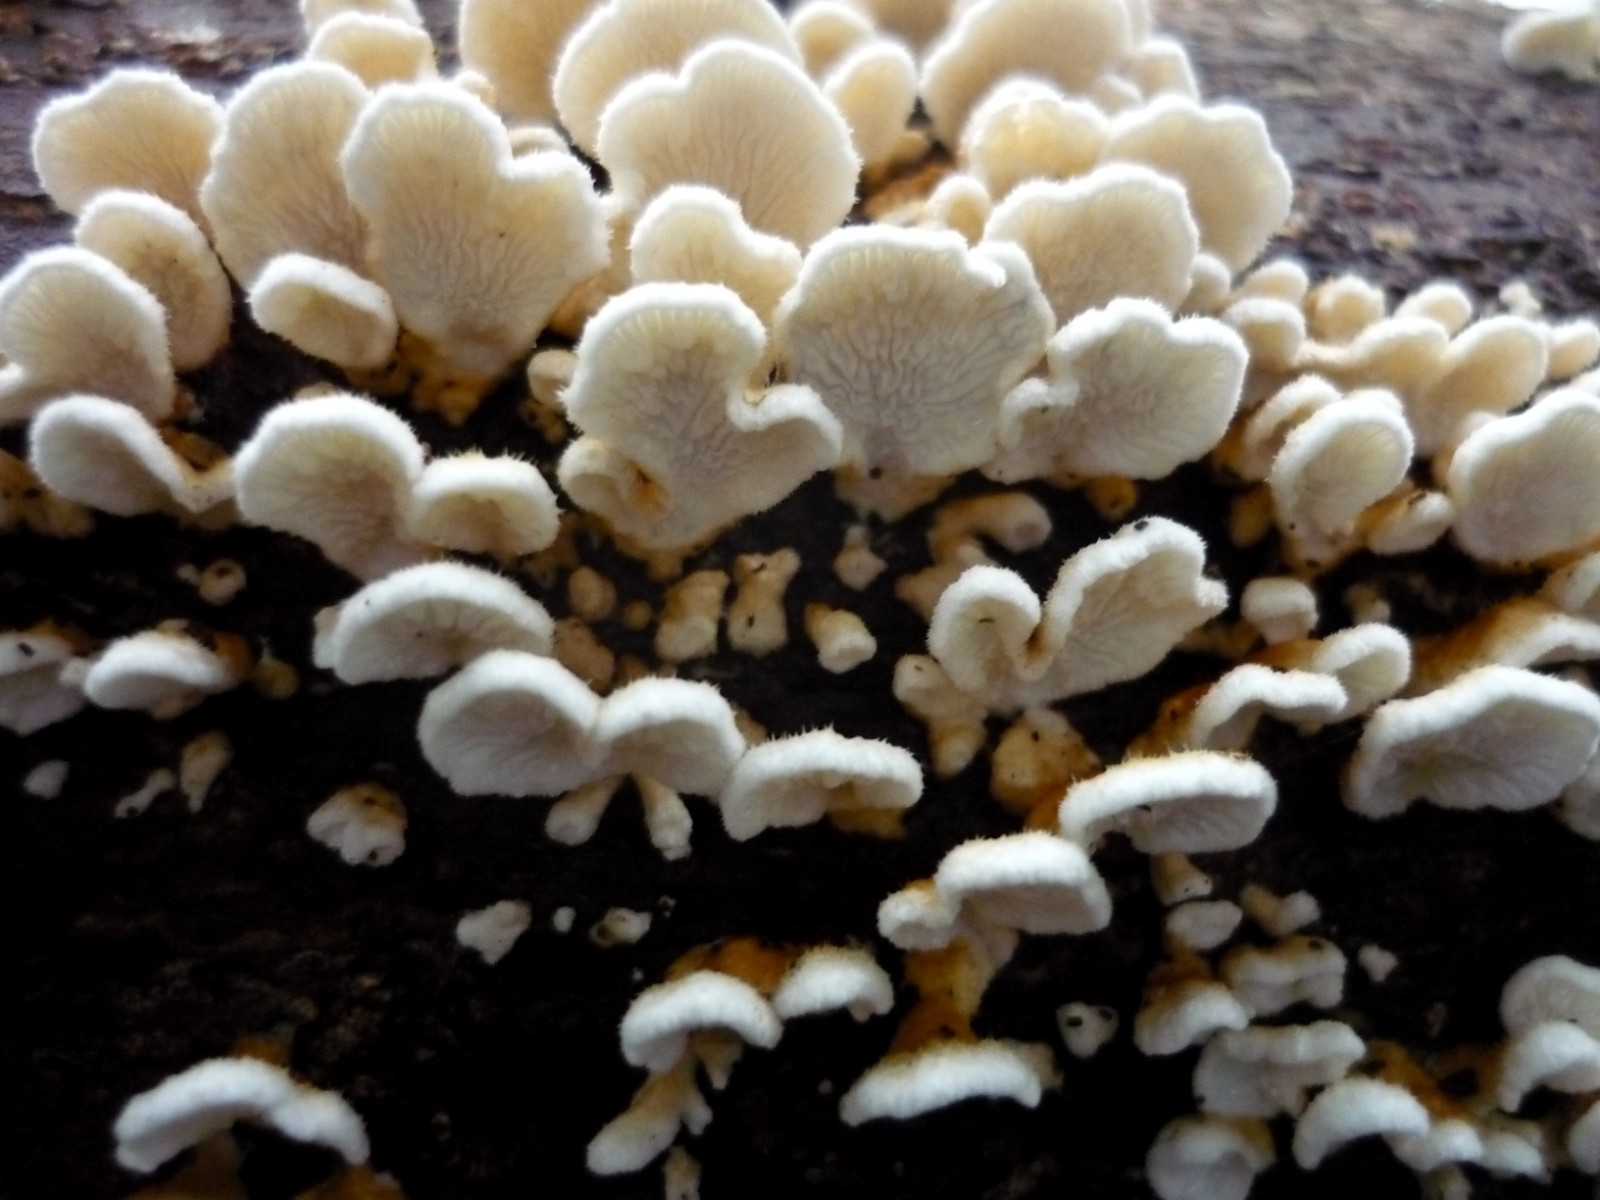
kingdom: Fungi
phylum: Basidiomycota
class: Agaricomycetes
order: Amylocorticiales
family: Amylocorticiaceae
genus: Plicaturopsis
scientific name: Plicaturopsis crispa
